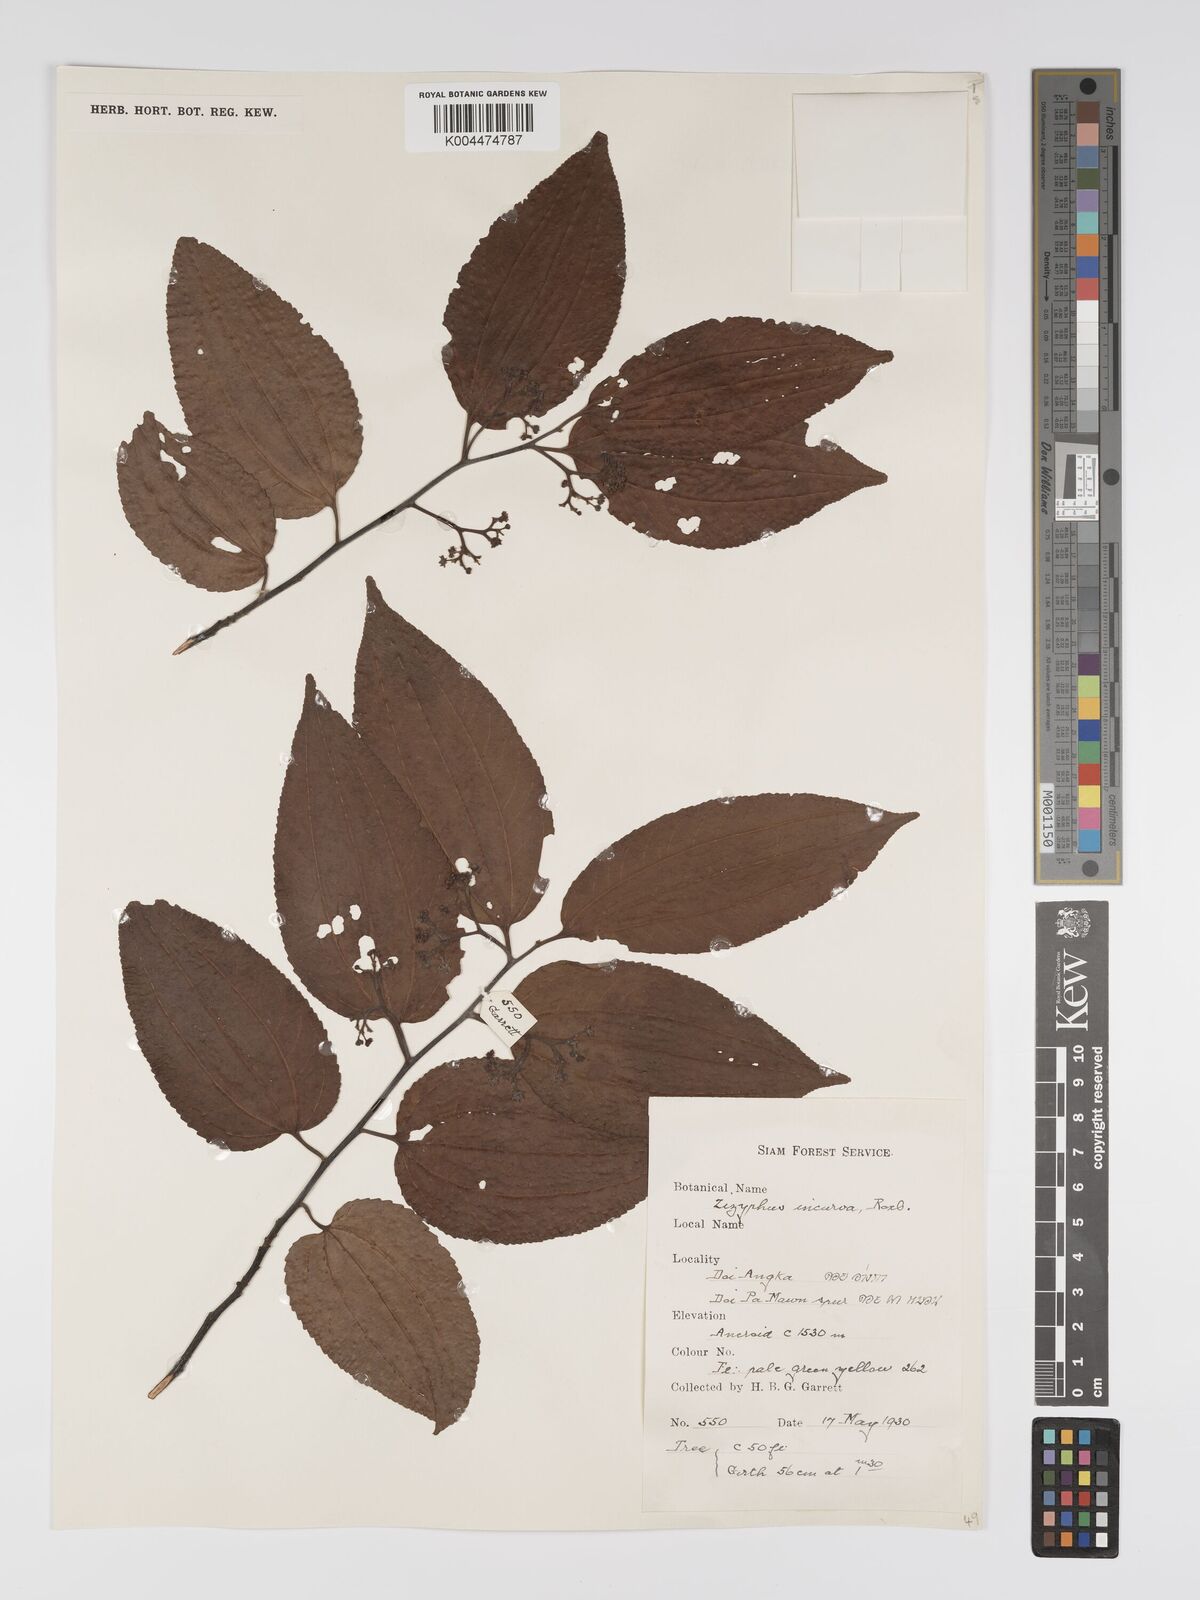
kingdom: Plantae
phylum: Tracheophyta
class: Magnoliopsida
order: Rosales
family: Rhamnaceae
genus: Ziziphus
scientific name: Ziziphus incurva
